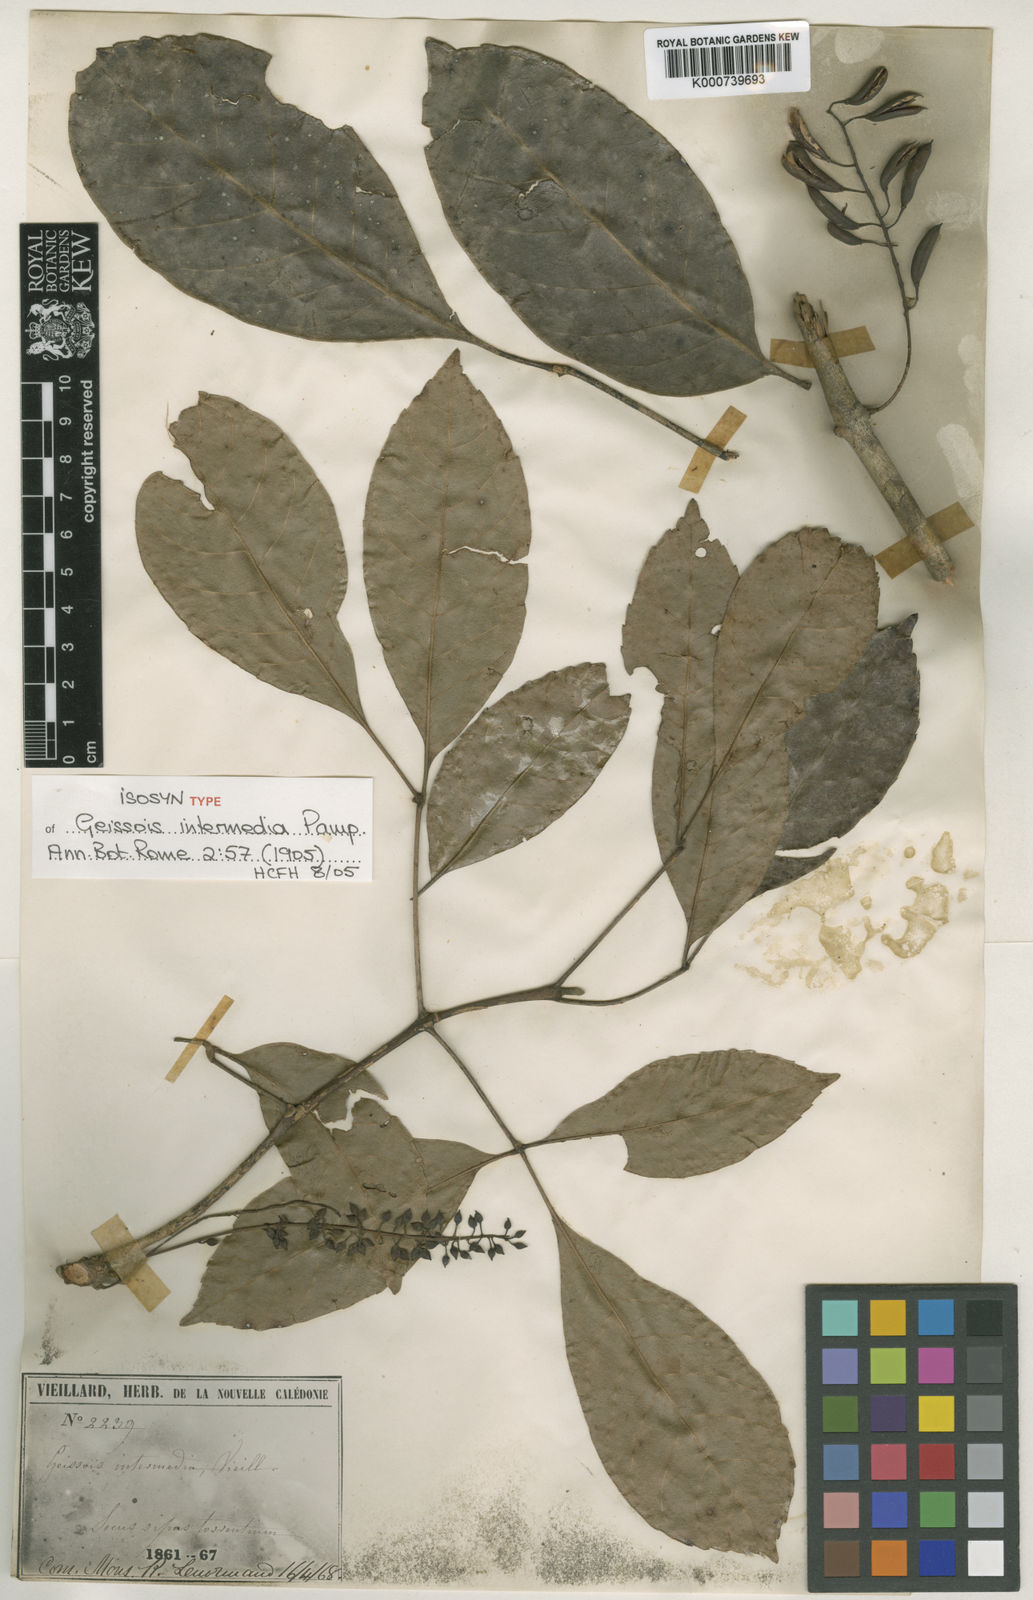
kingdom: Plantae
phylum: Tracheophyta
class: Magnoliopsida
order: Oxalidales
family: Cunoniaceae
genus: Geissois
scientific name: Geissois pruinosa
